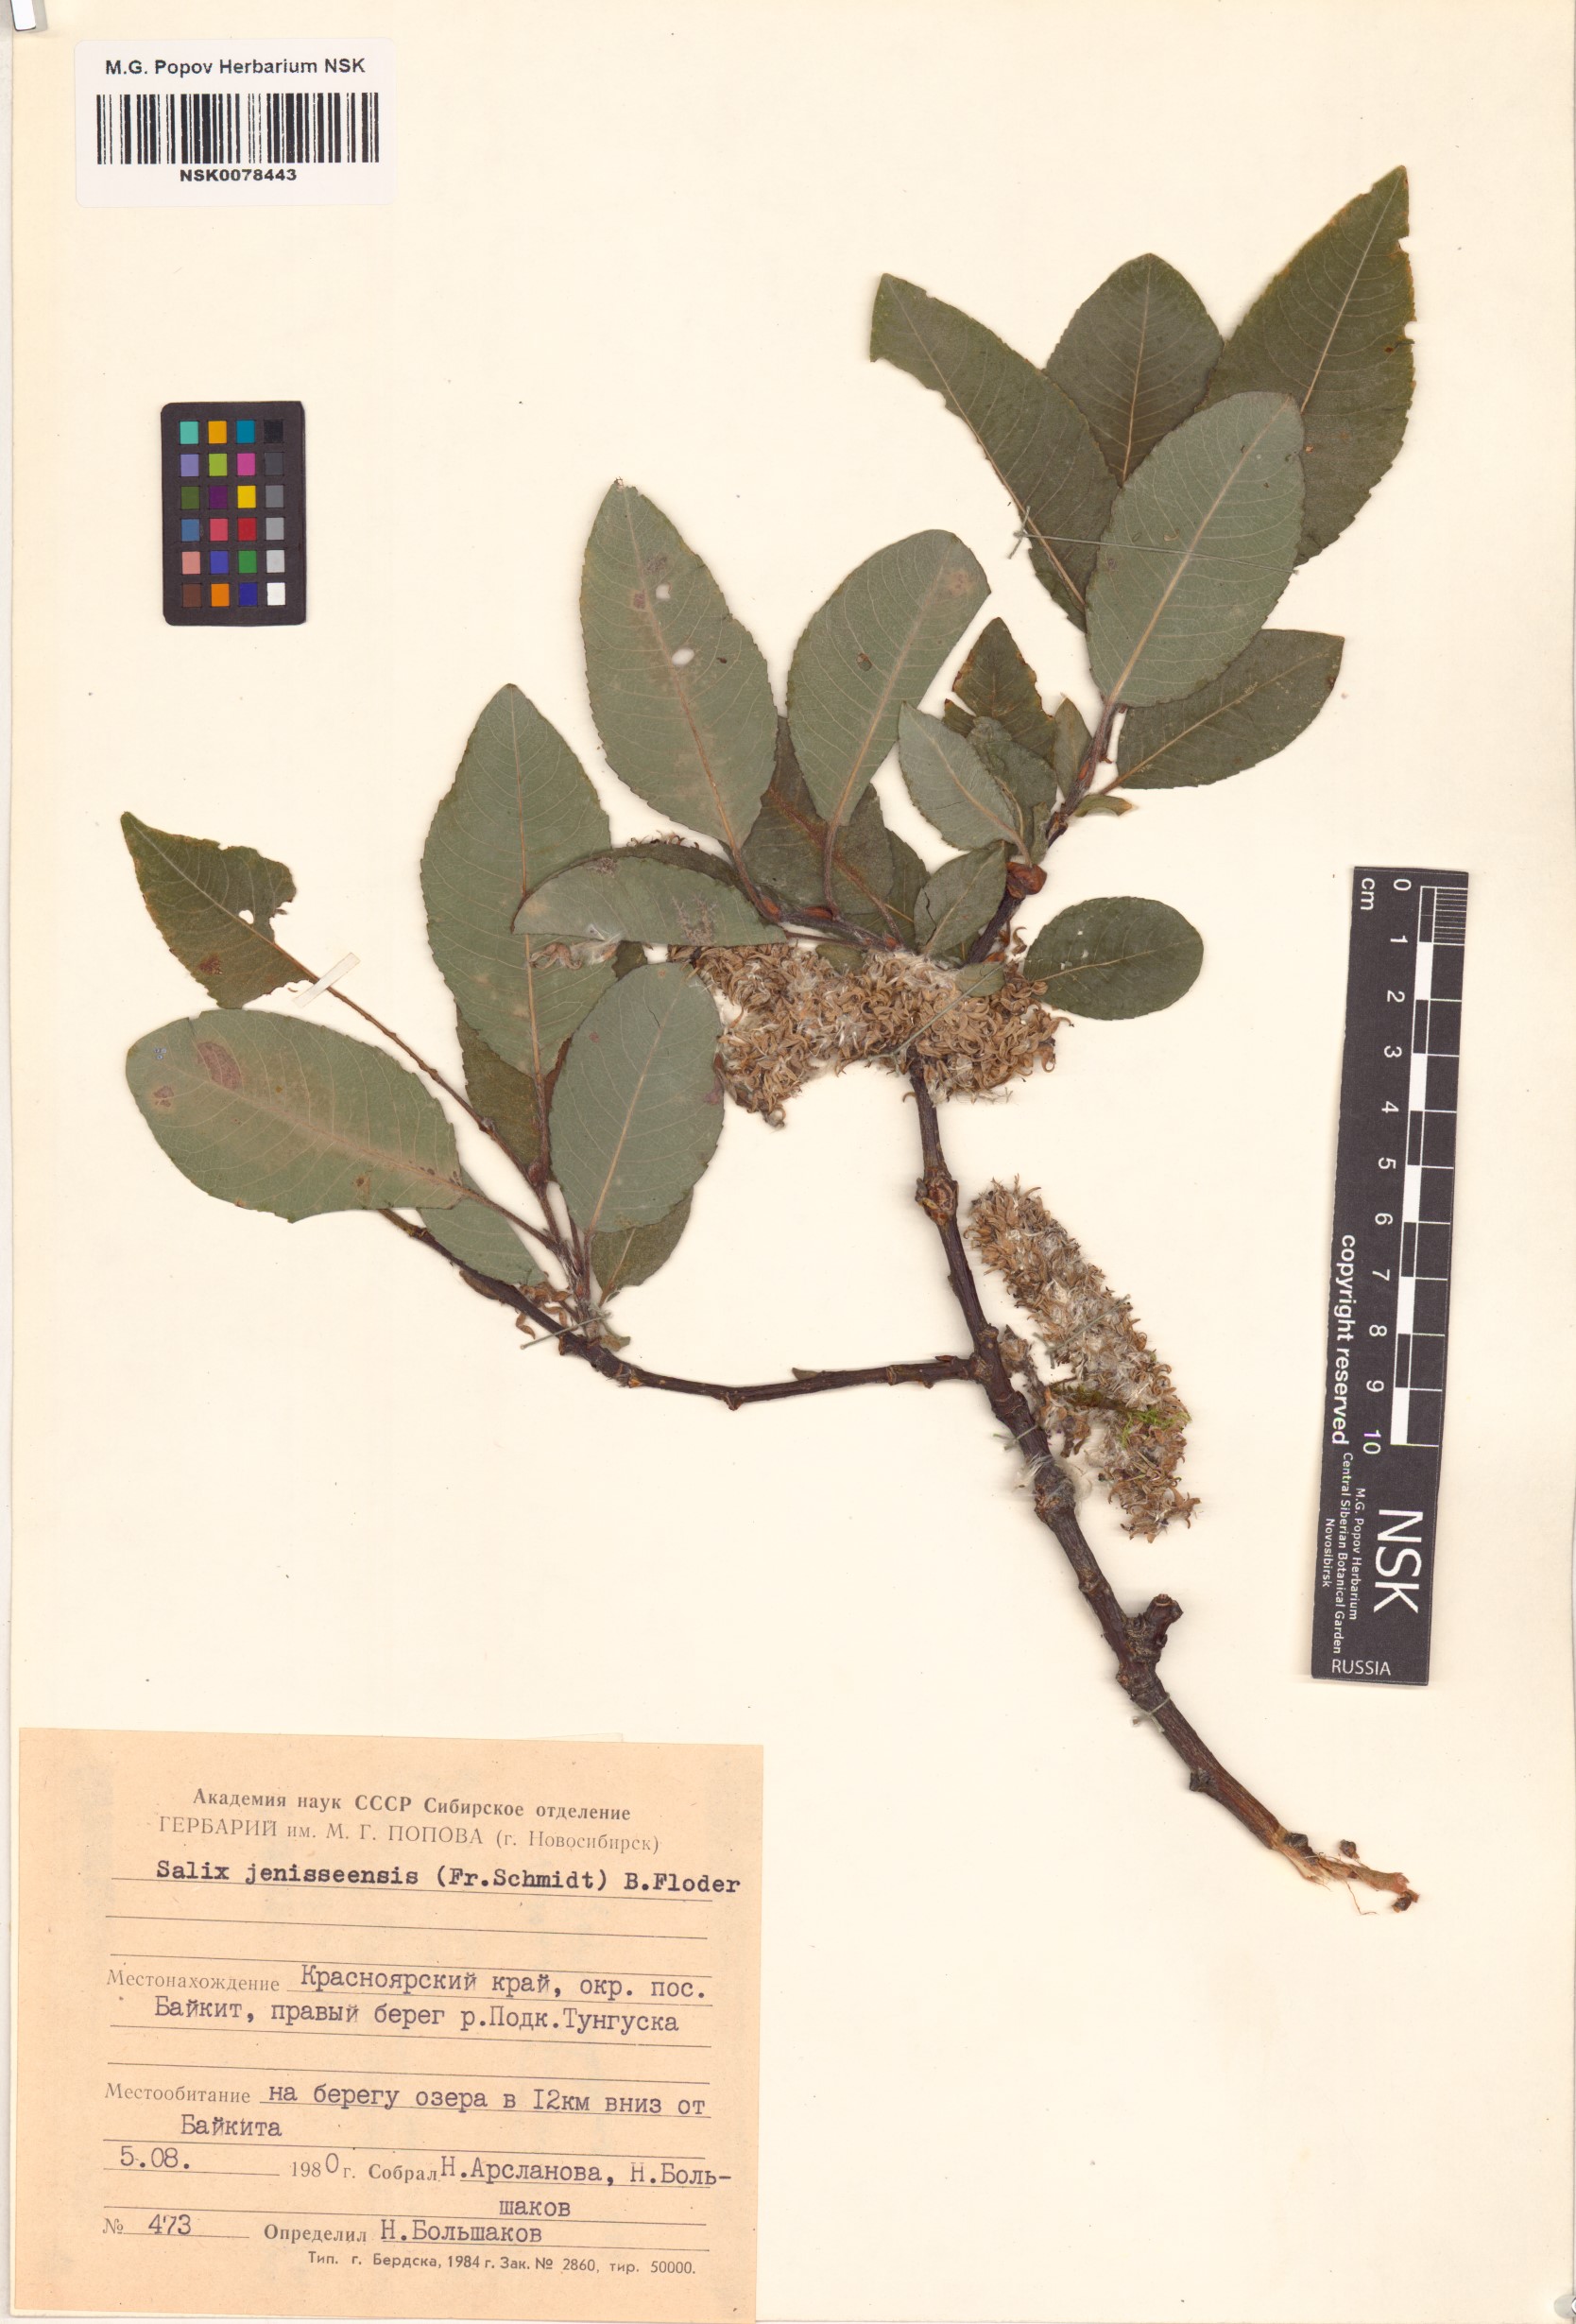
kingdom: Plantae
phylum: Tracheophyta
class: Magnoliopsida
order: Malpighiales
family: Salicaceae
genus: Salix
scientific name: Salix jenisseensis
